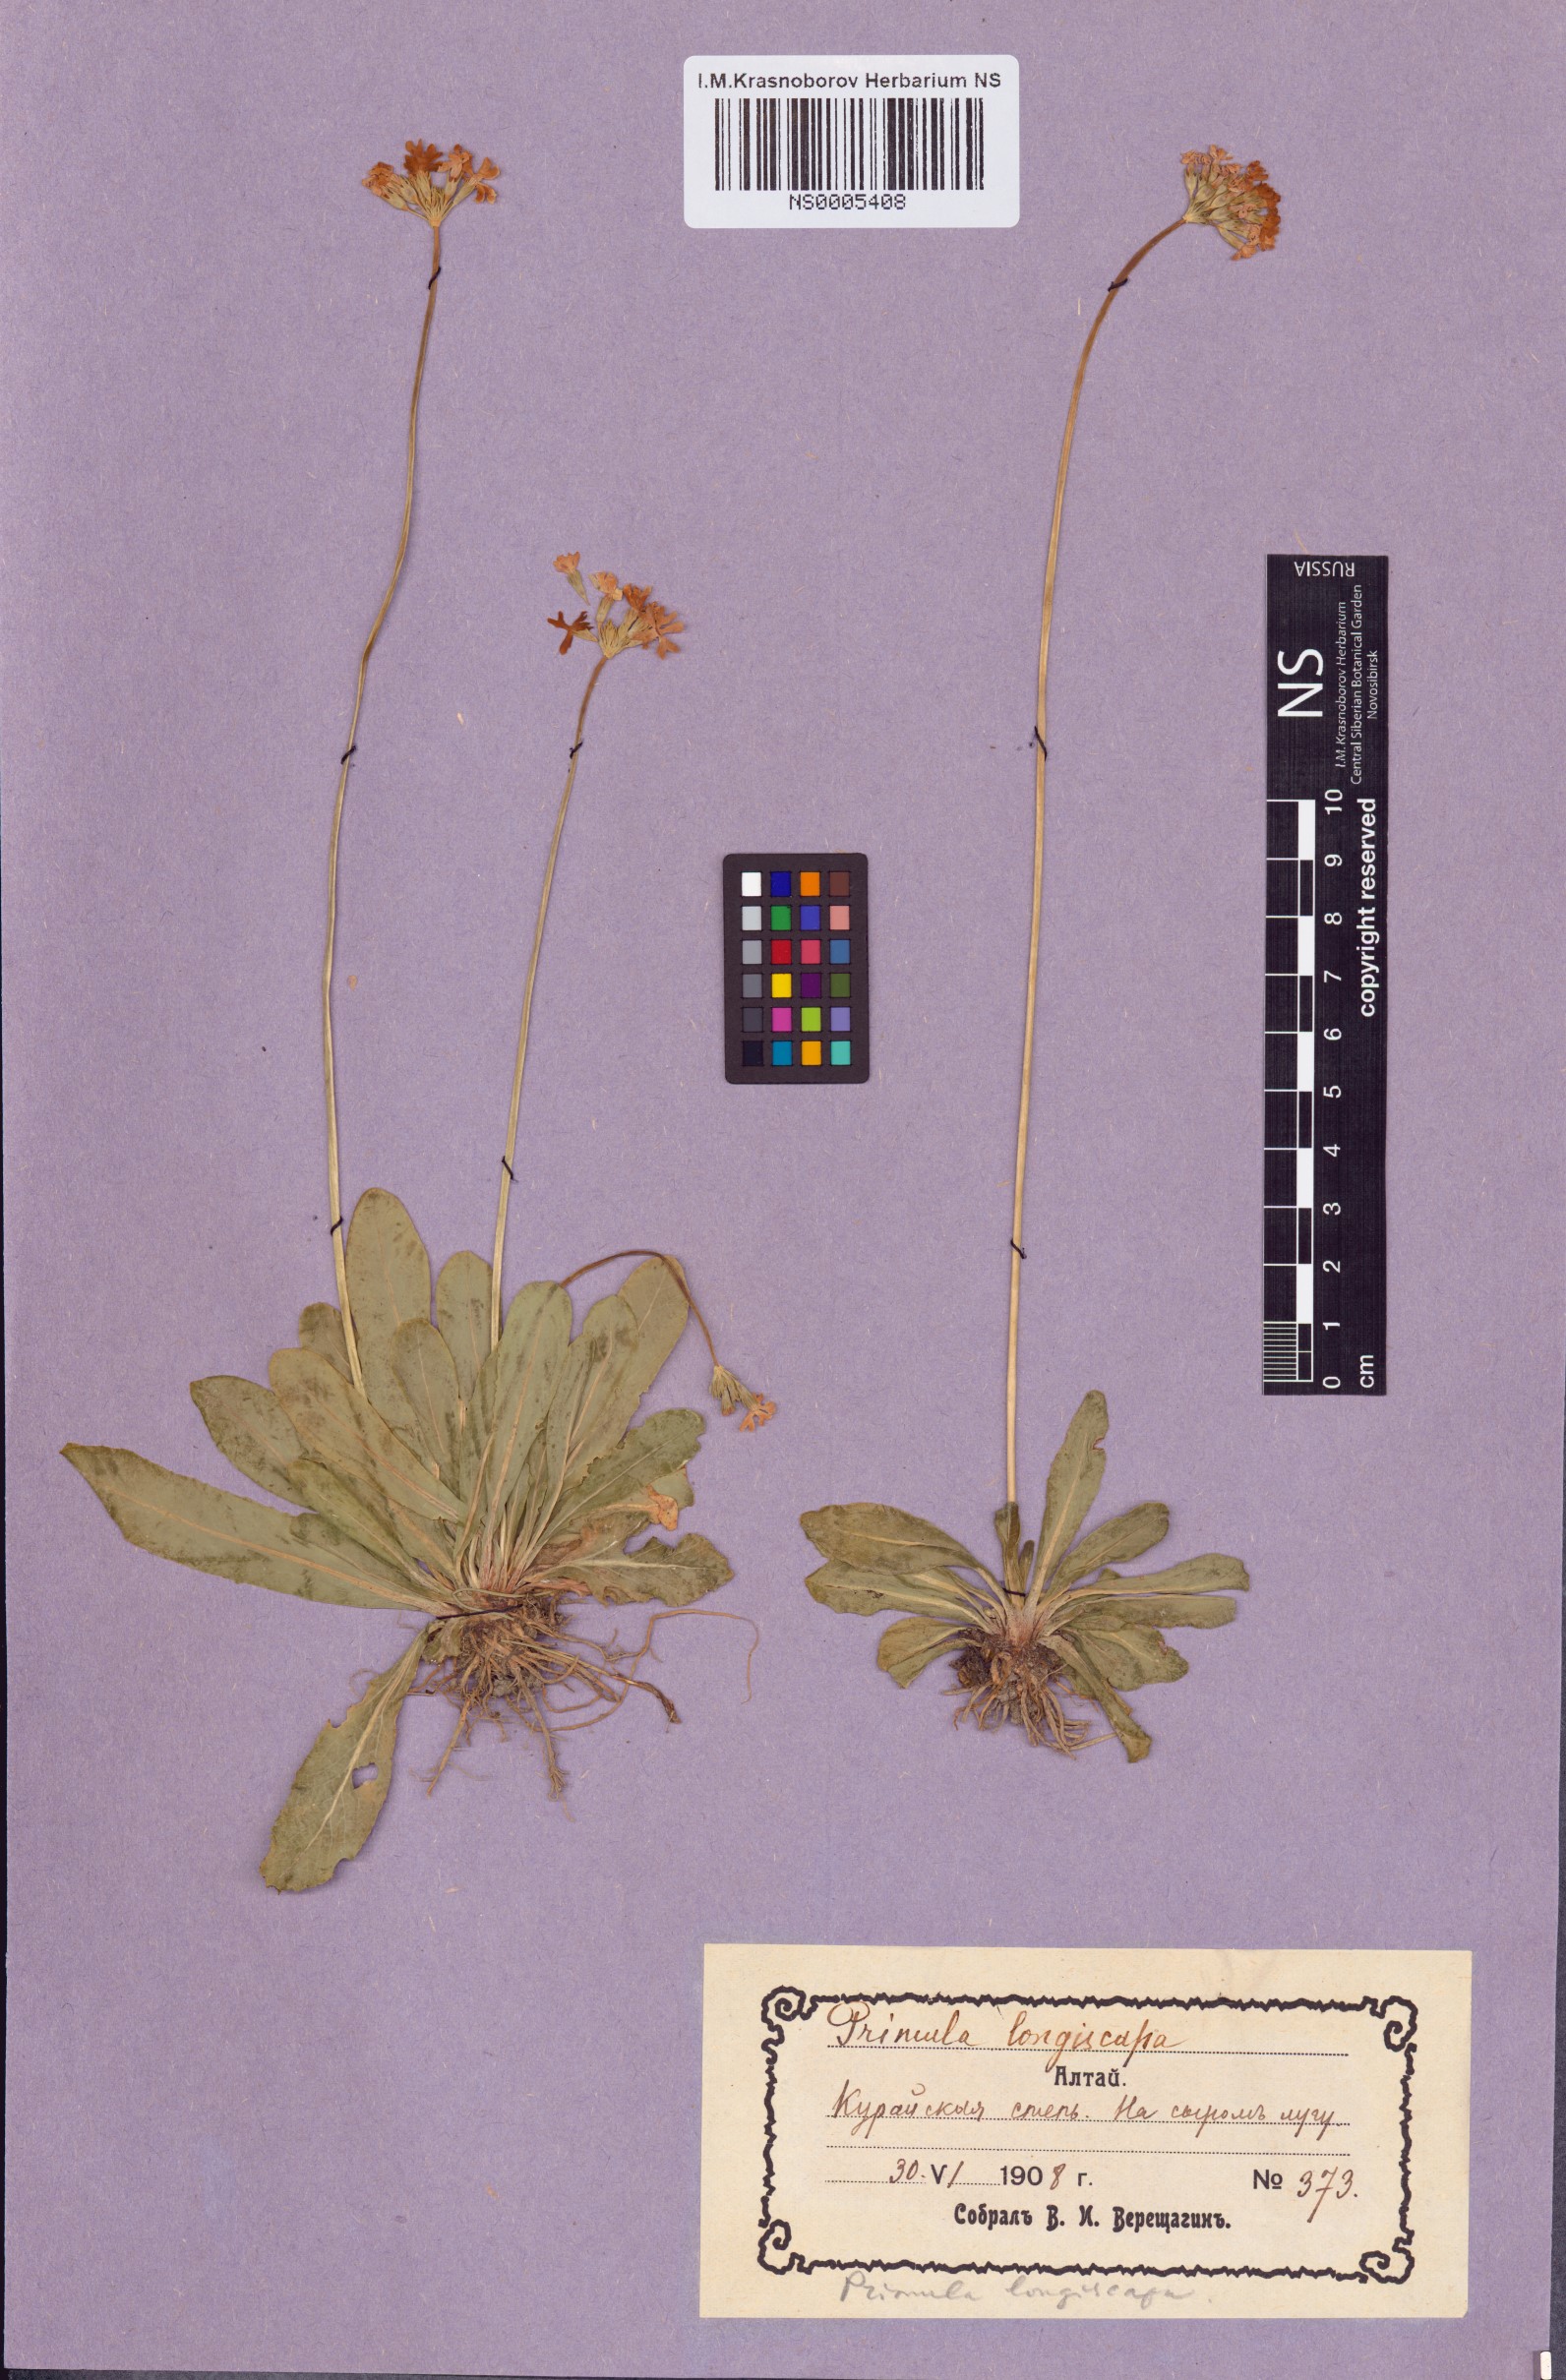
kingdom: Plantae
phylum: Tracheophyta
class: Magnoliopsida
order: Ericales
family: Primulaceae
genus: Primula
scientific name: Primula longiscapa
